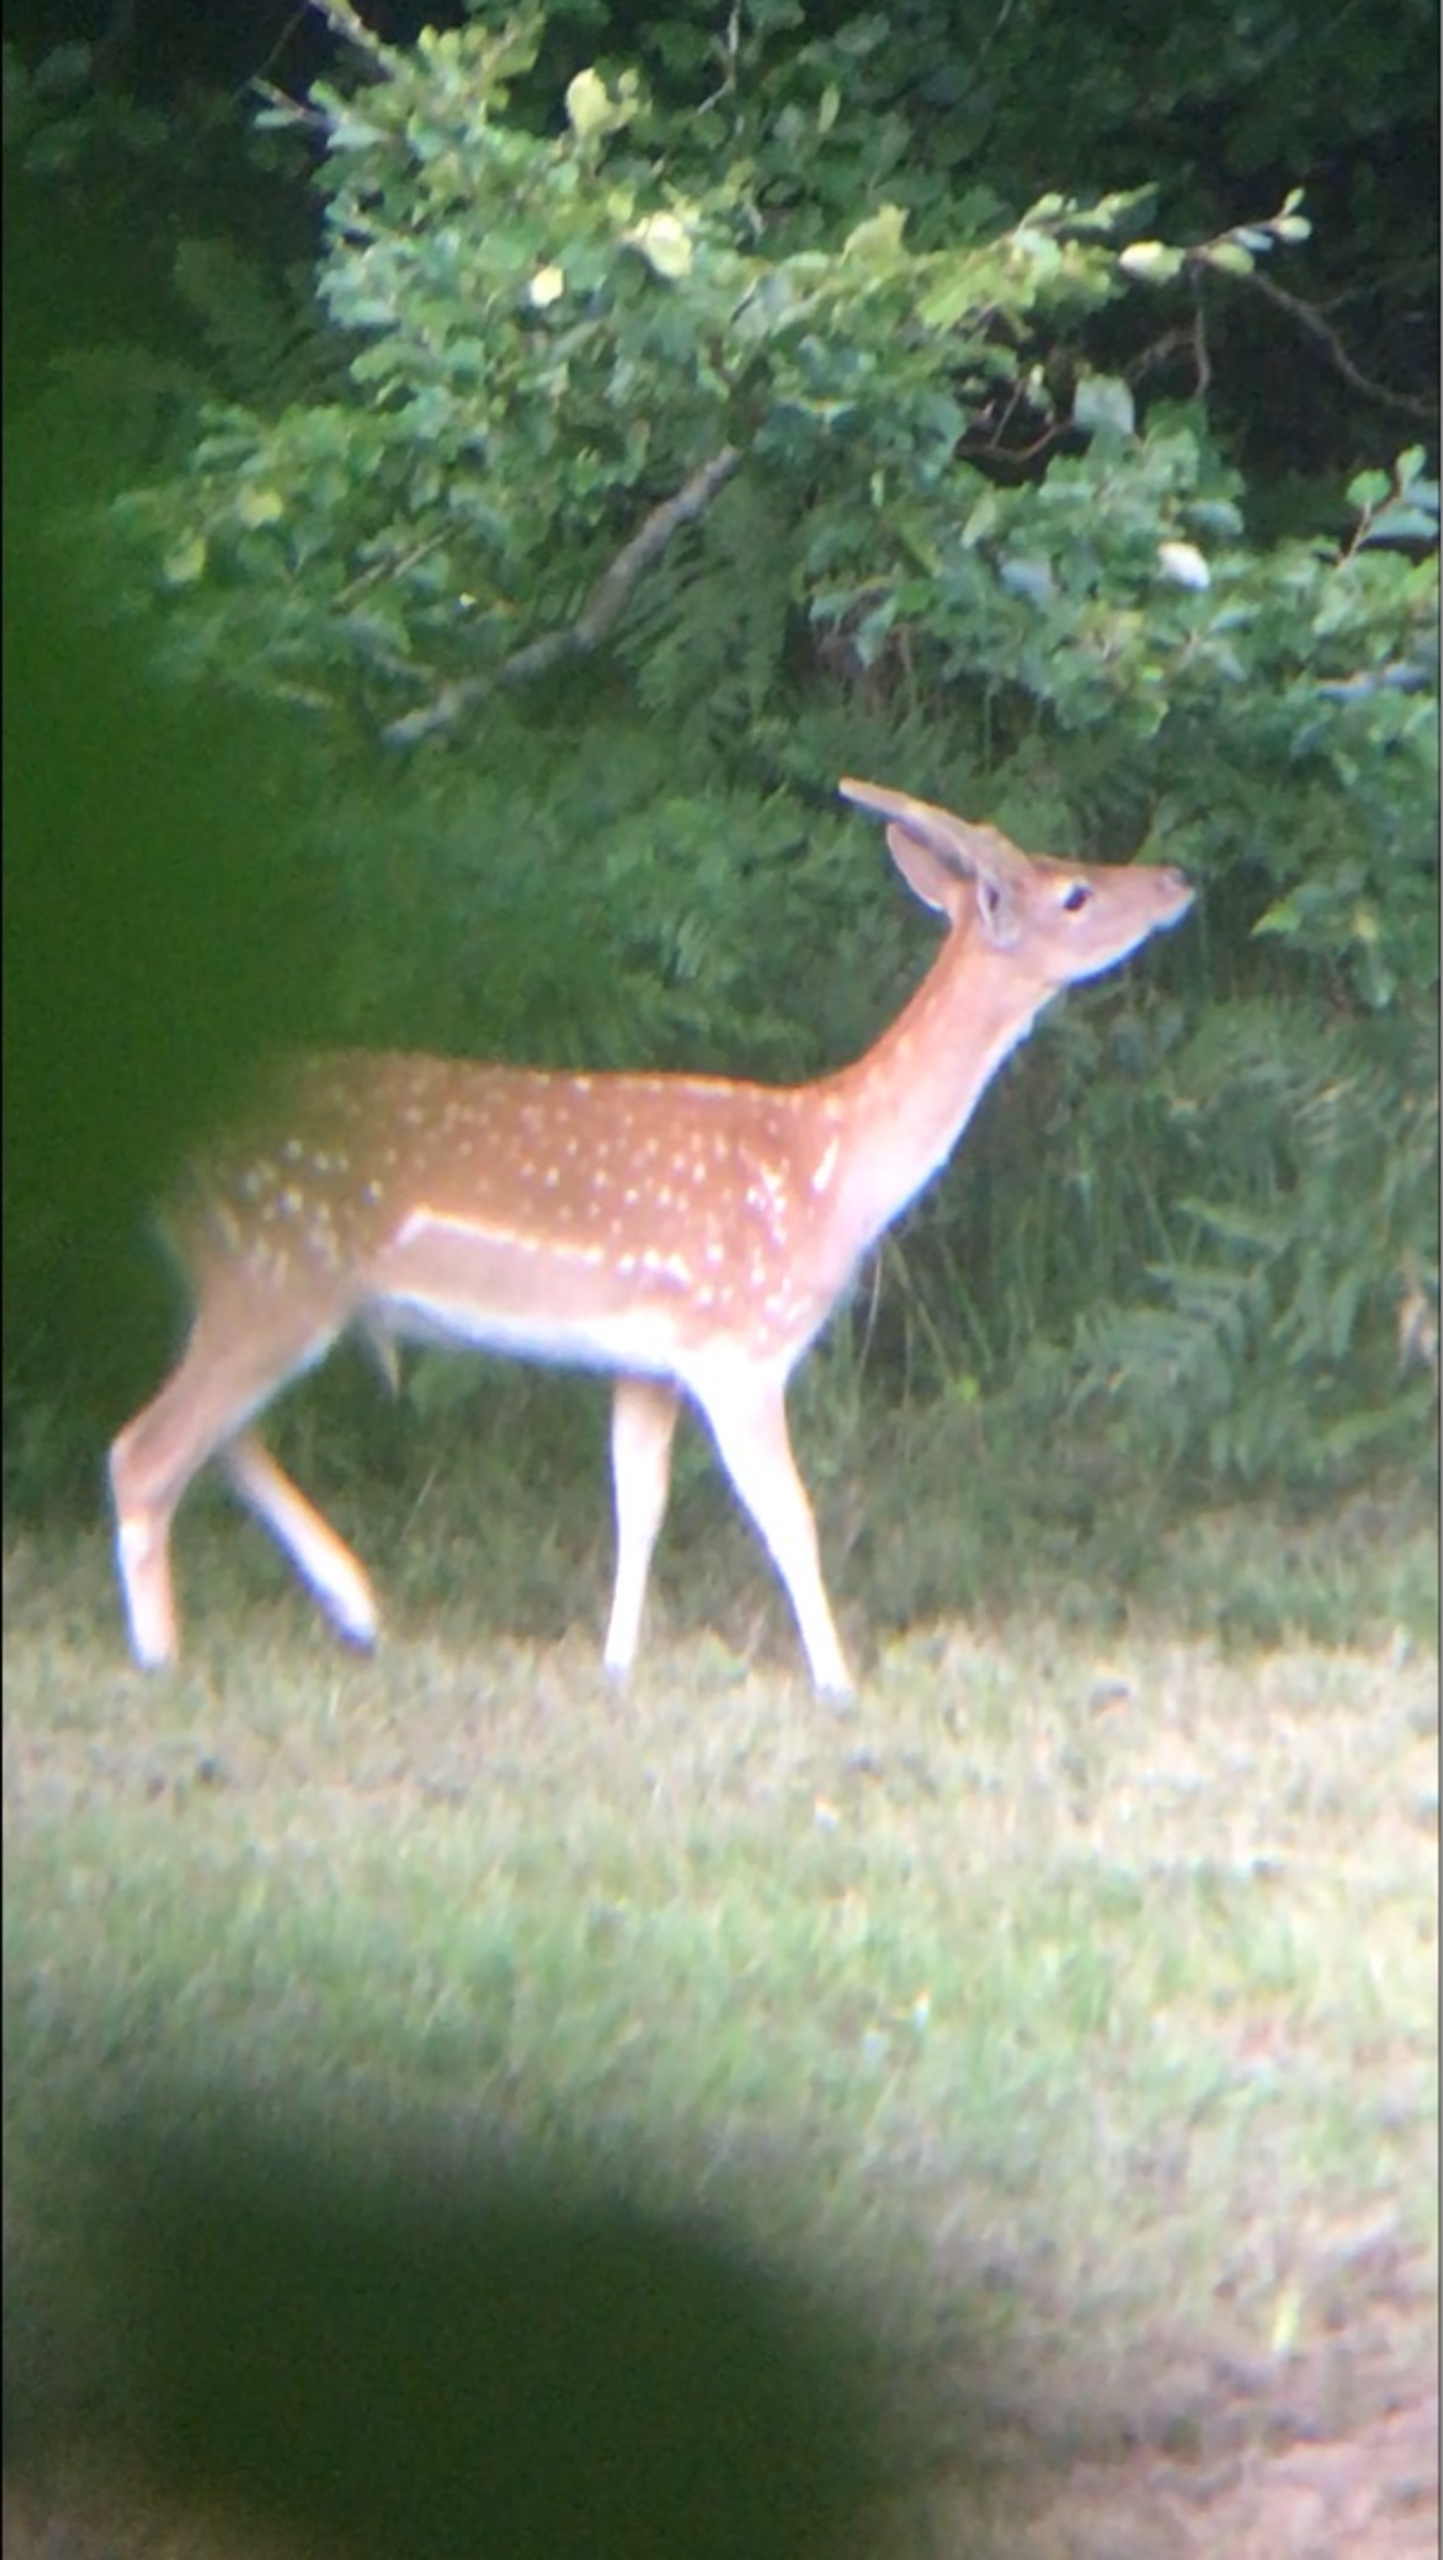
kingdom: Animalia
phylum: Chordata
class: Mammalia
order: Artiodactyla
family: Cervidae
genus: Dama
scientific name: Dama dama
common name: Dådyr
